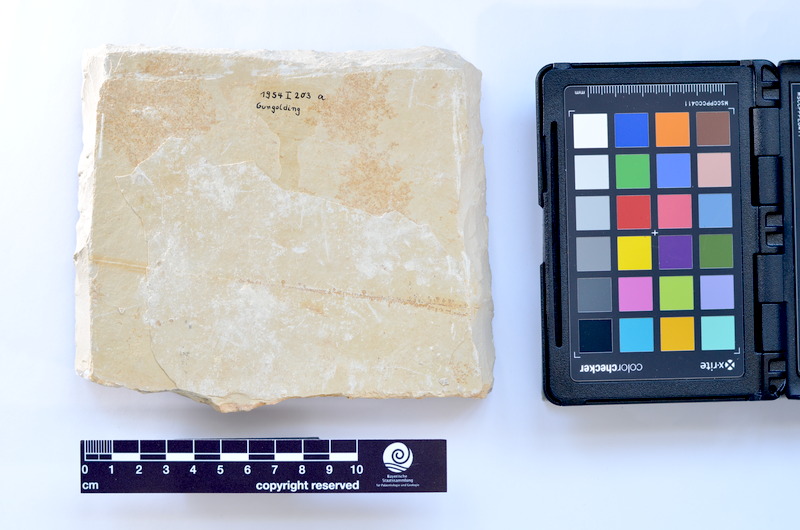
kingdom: Animalia
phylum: Chordata
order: Salmoniformes
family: Orthogonikleithridae
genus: Leptolepides
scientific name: Leptolepides sprattiformis
